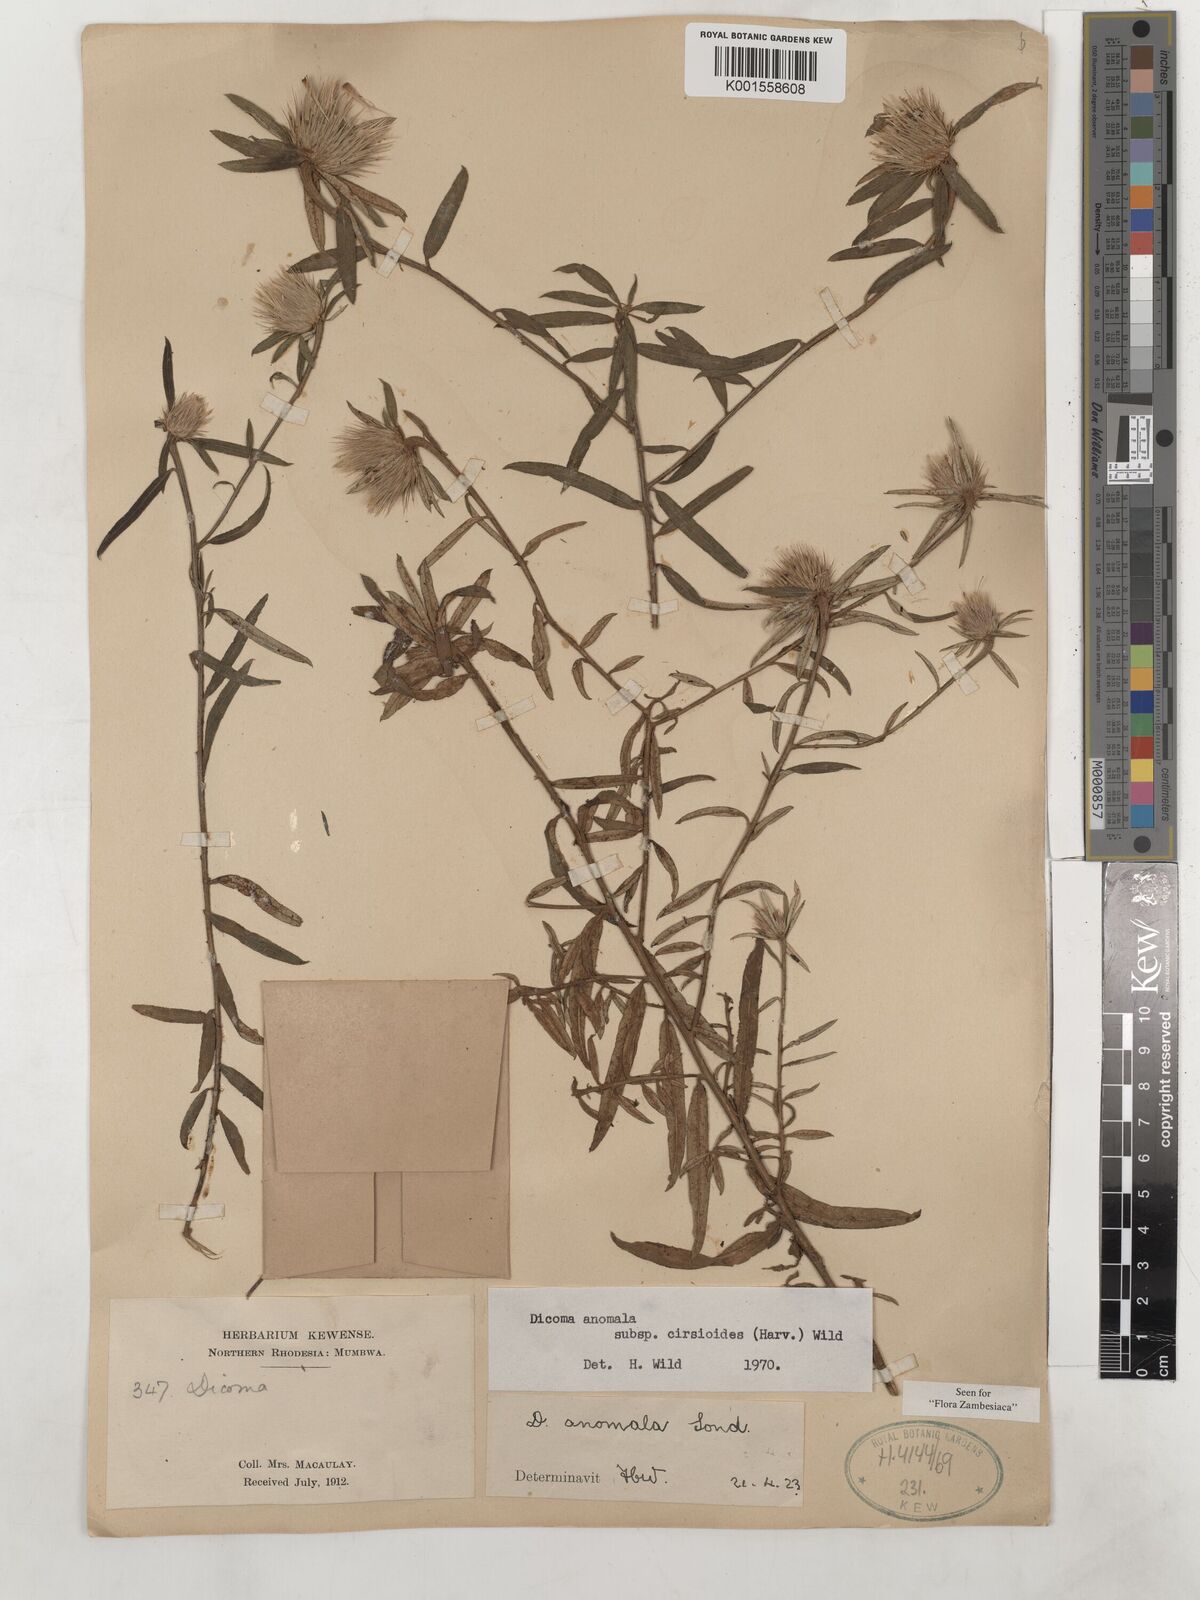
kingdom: Plantae
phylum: Tracheophyta
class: Magnoliopsida
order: Asterales
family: Asteraceae
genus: Dicoma
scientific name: Dicoma anomala
